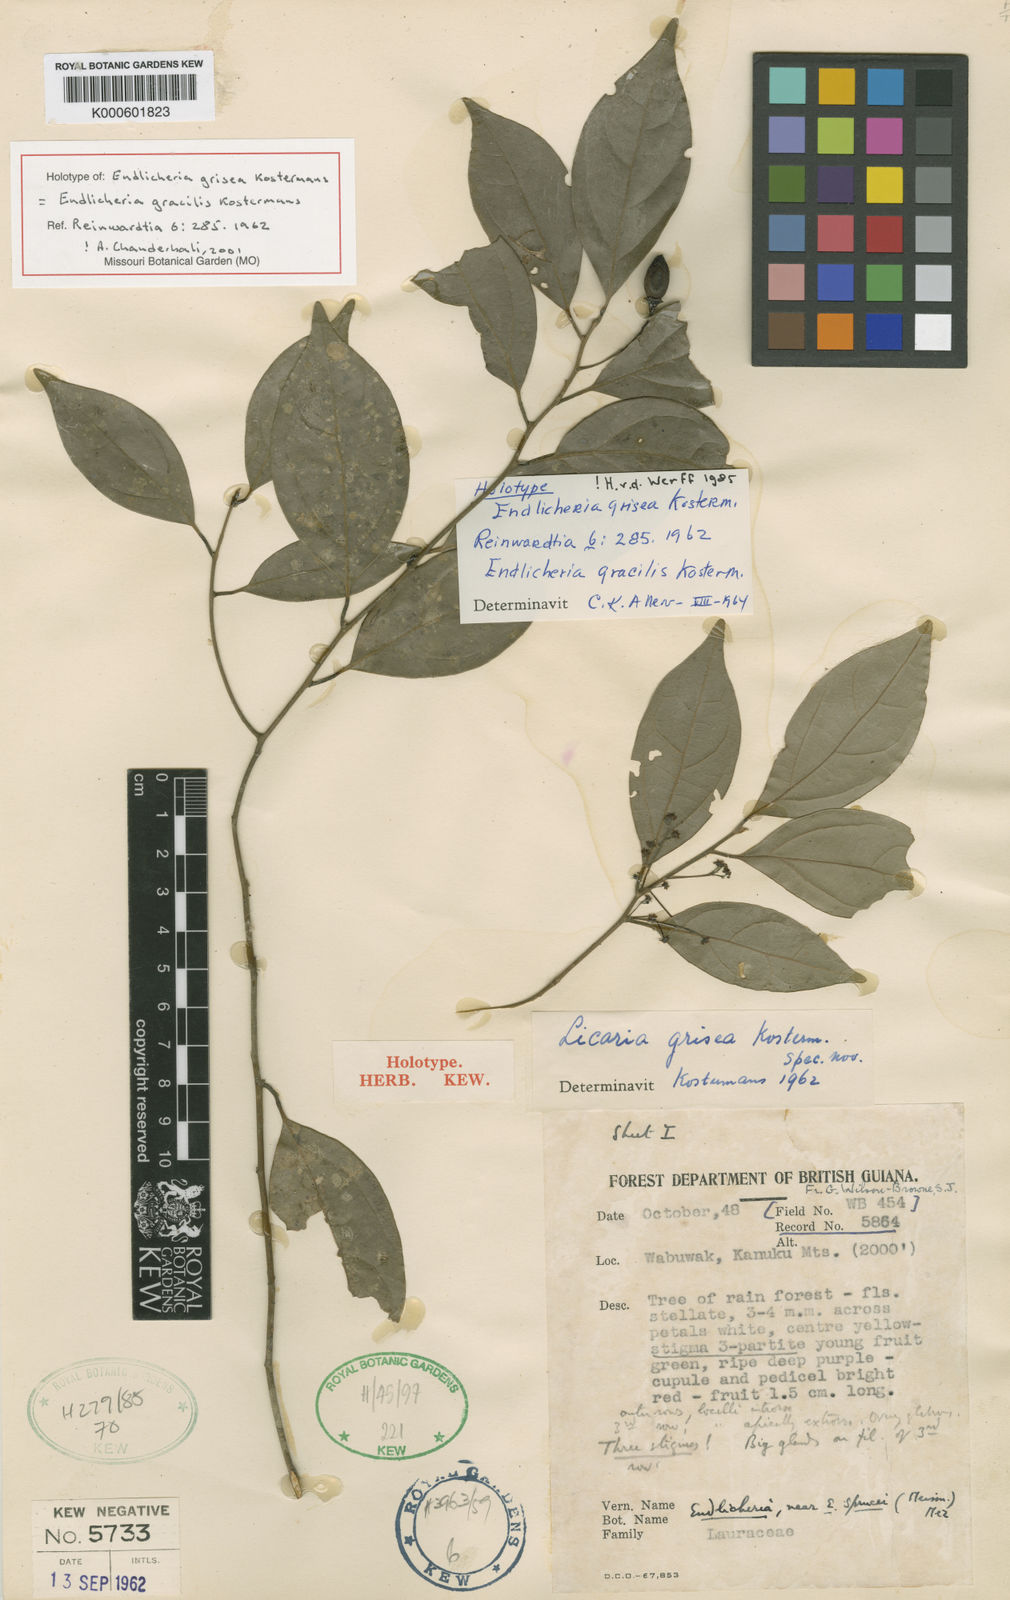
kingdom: Plantae
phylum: Tracheophyta
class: Magnoliopsida
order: Laurales
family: Lauraceae
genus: Endlicheria
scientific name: Endlicheria gracilis
